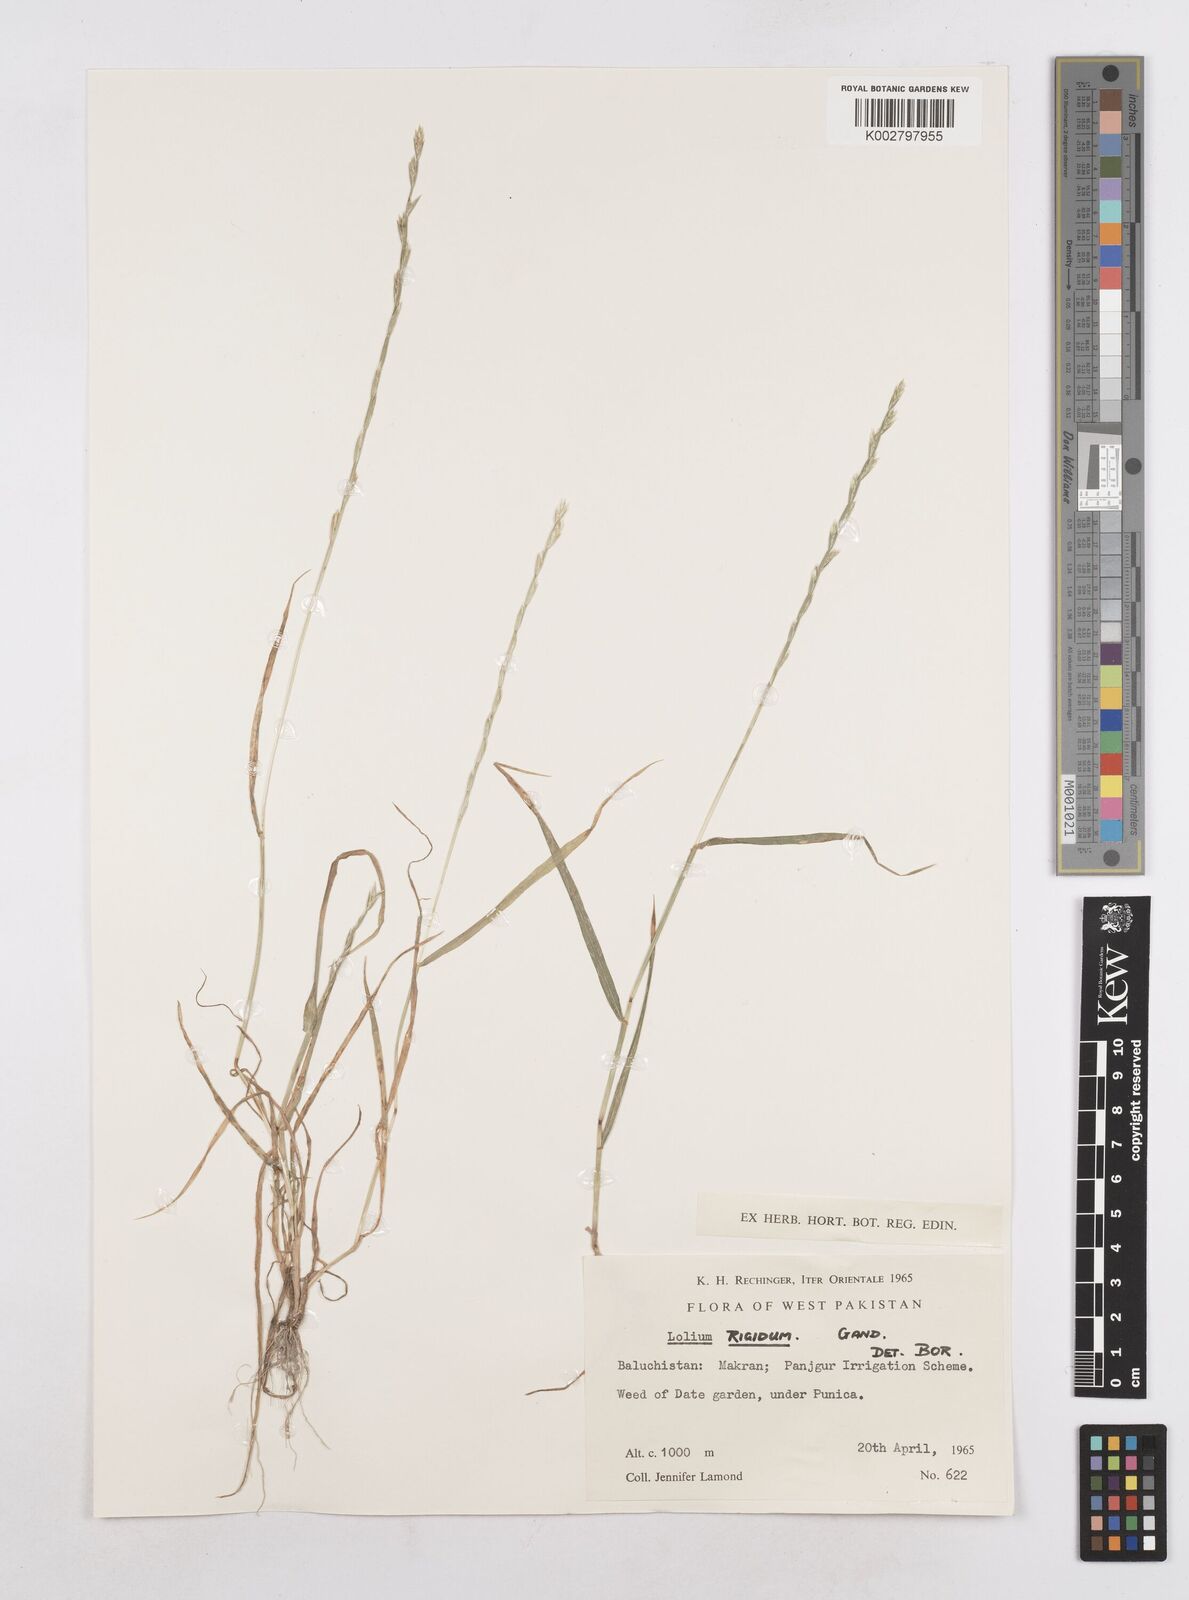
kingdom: Plantae
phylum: Tracheophyta
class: Liliopsida
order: Poales
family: Poaceae
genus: Lolium
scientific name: Lolium rigidum
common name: Wimmera ryegrass
